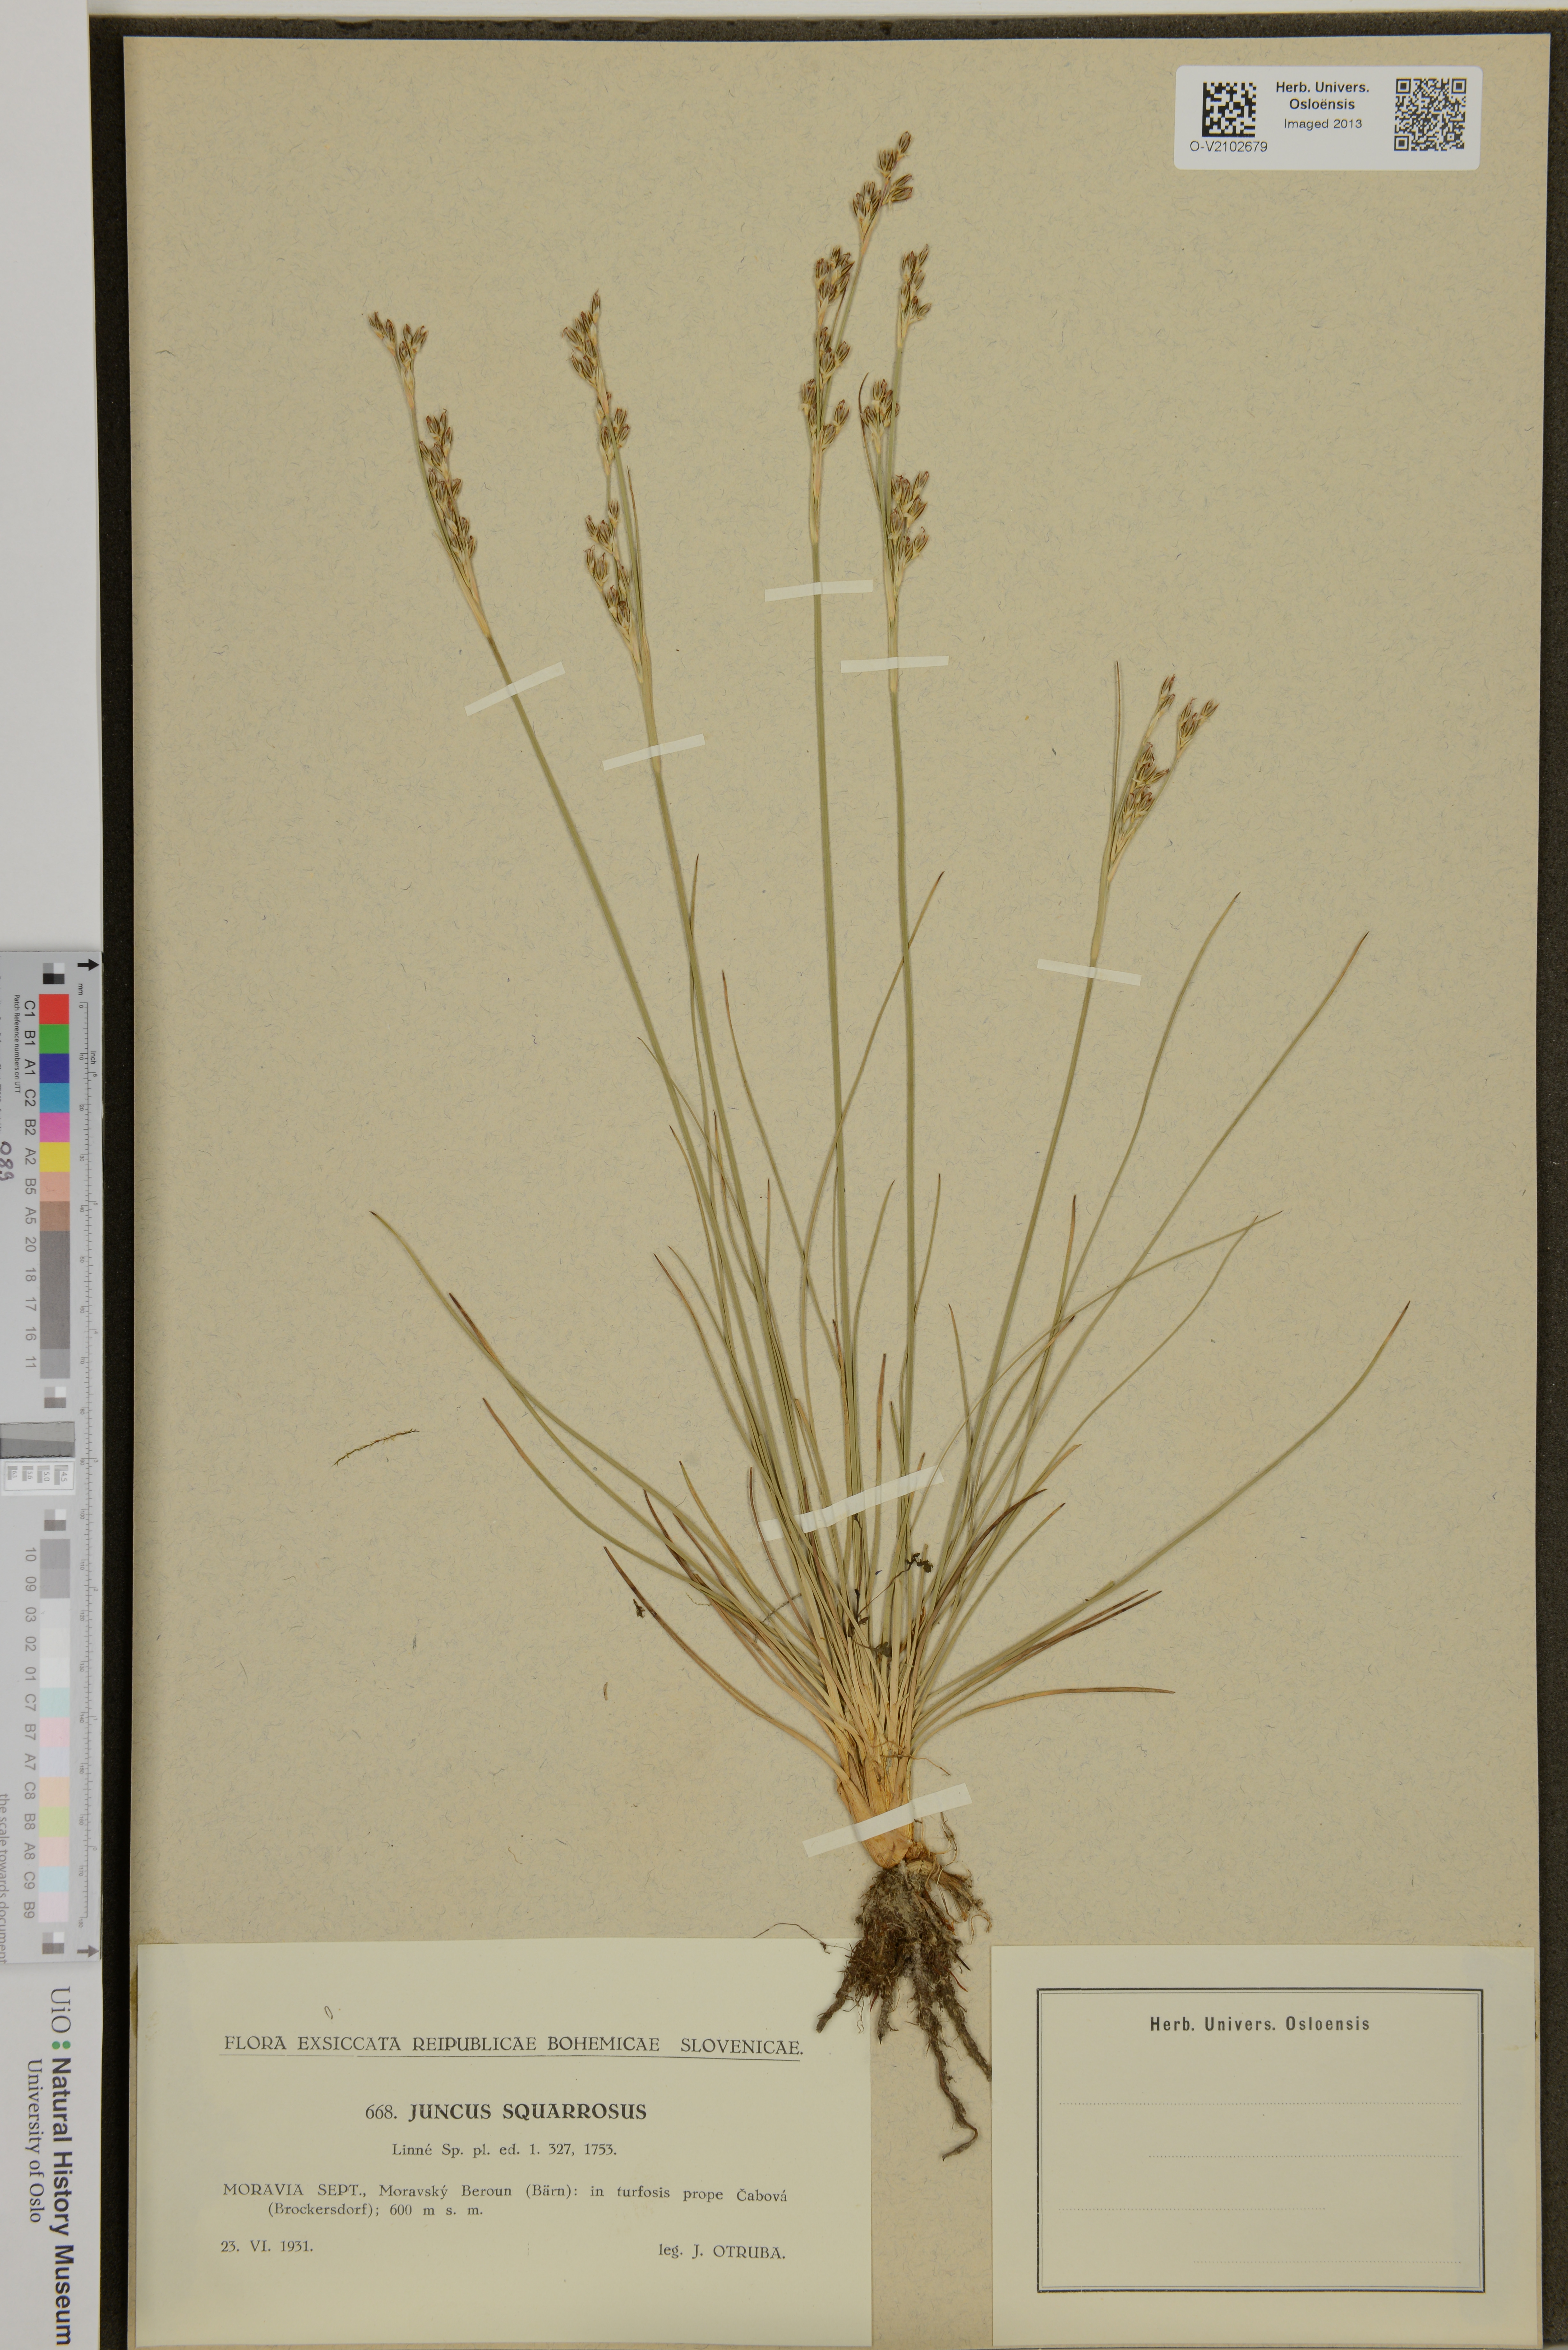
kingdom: Plantae
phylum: Tracheophyta
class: Liliopsida
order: Poales
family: Juncaceae
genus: Juncus
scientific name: Juncus squarrosus
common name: Heath rush
